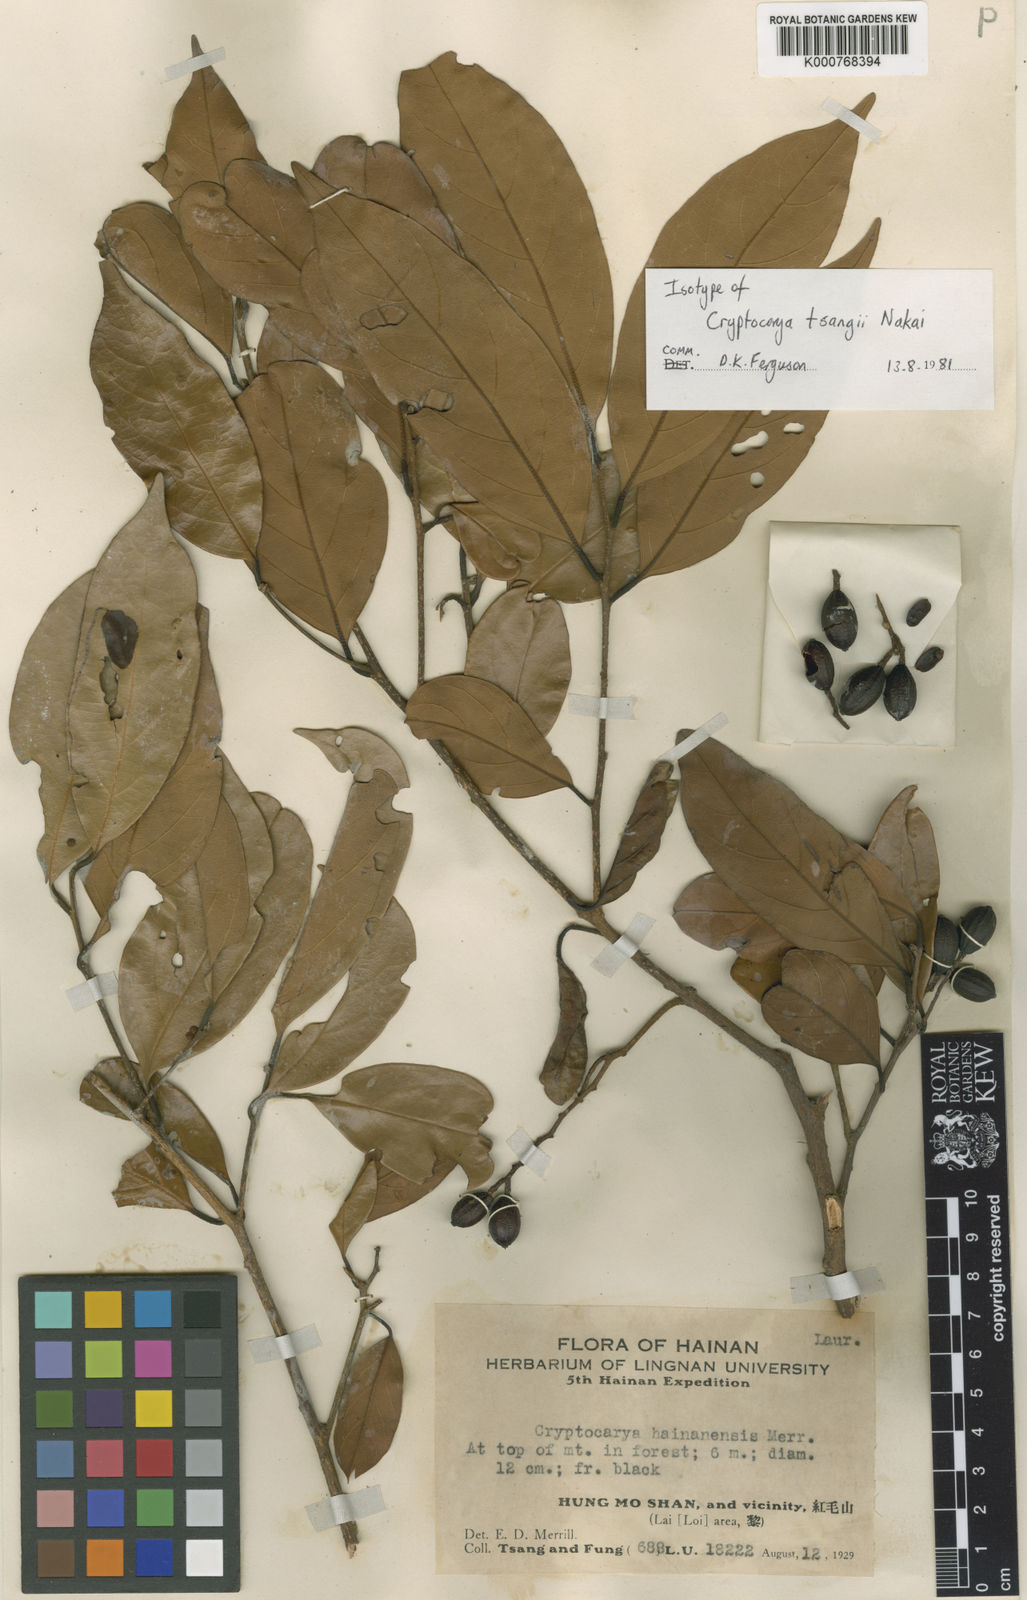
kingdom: Plantae
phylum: Tracheophyta
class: Magnoliopsida
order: Laurales
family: Lauraceae
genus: Cryptocarya
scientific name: Cryptocarya tsangii
